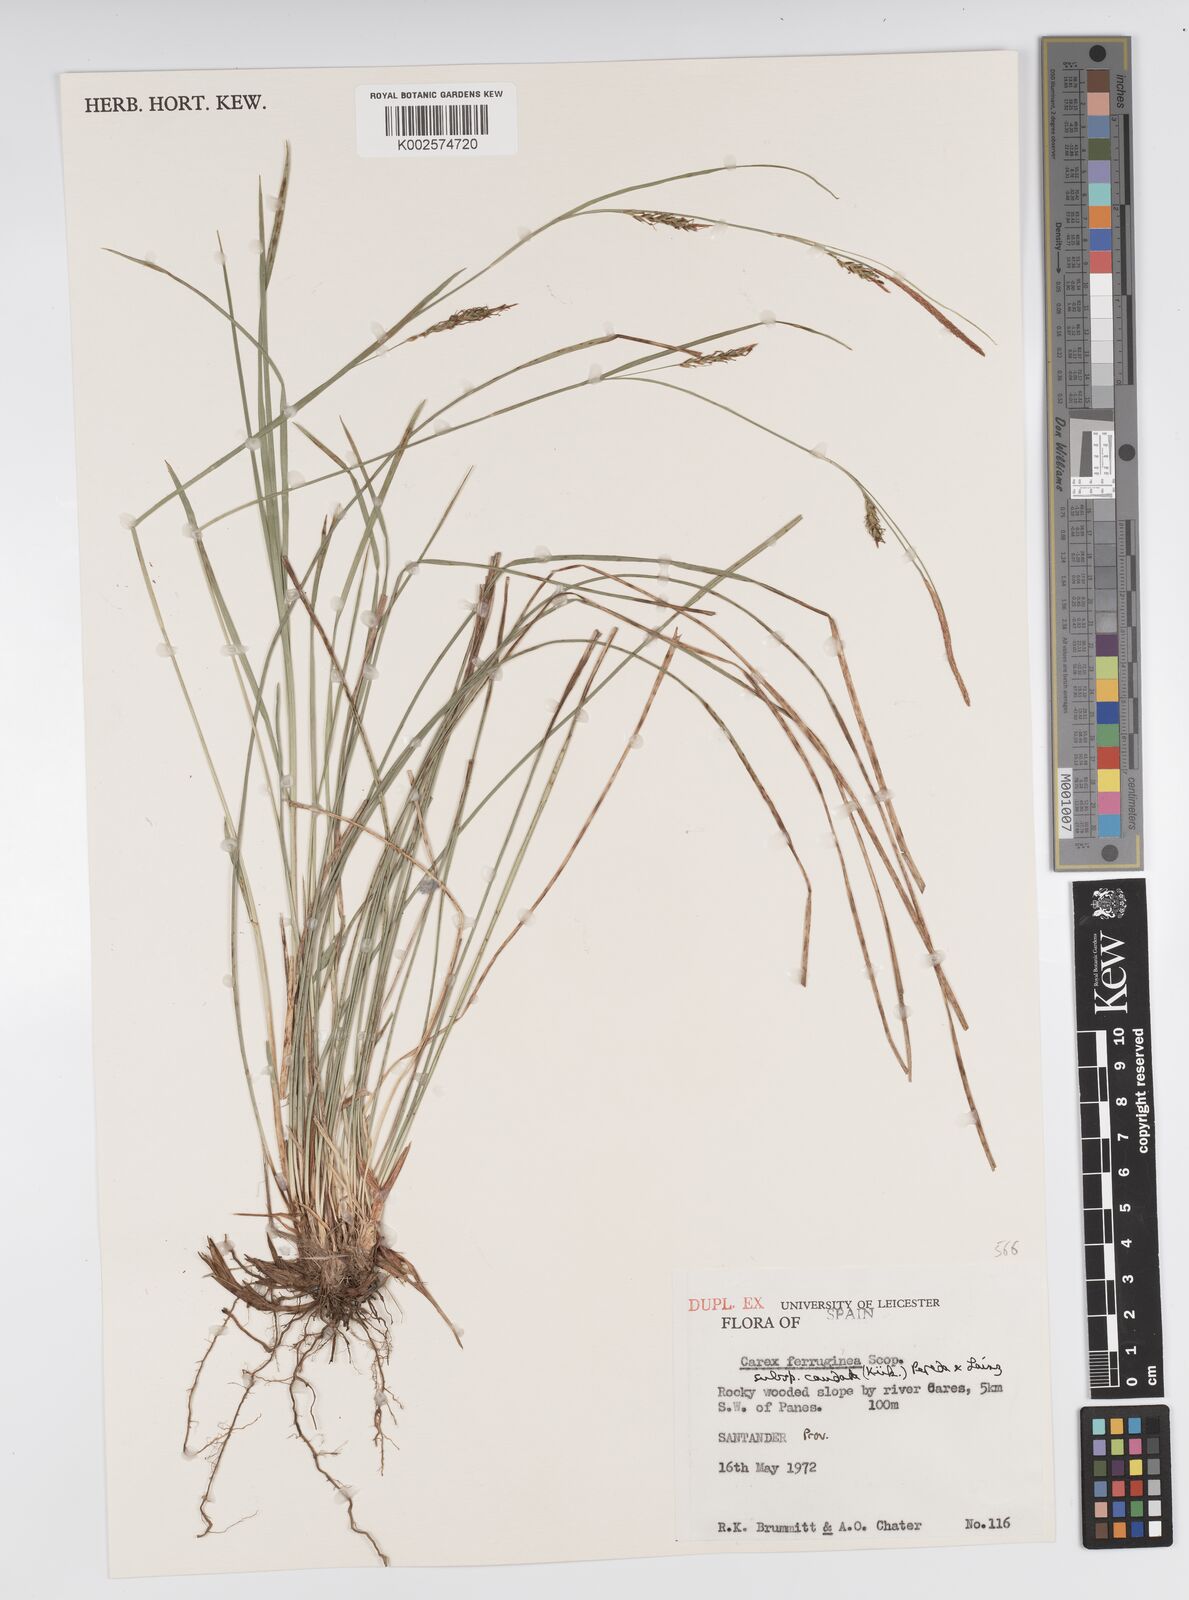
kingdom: Plantae
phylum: Tracheophyta
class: Liliopsida
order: Poales
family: Cyperaceae
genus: Carex
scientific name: Carex ferruginea
